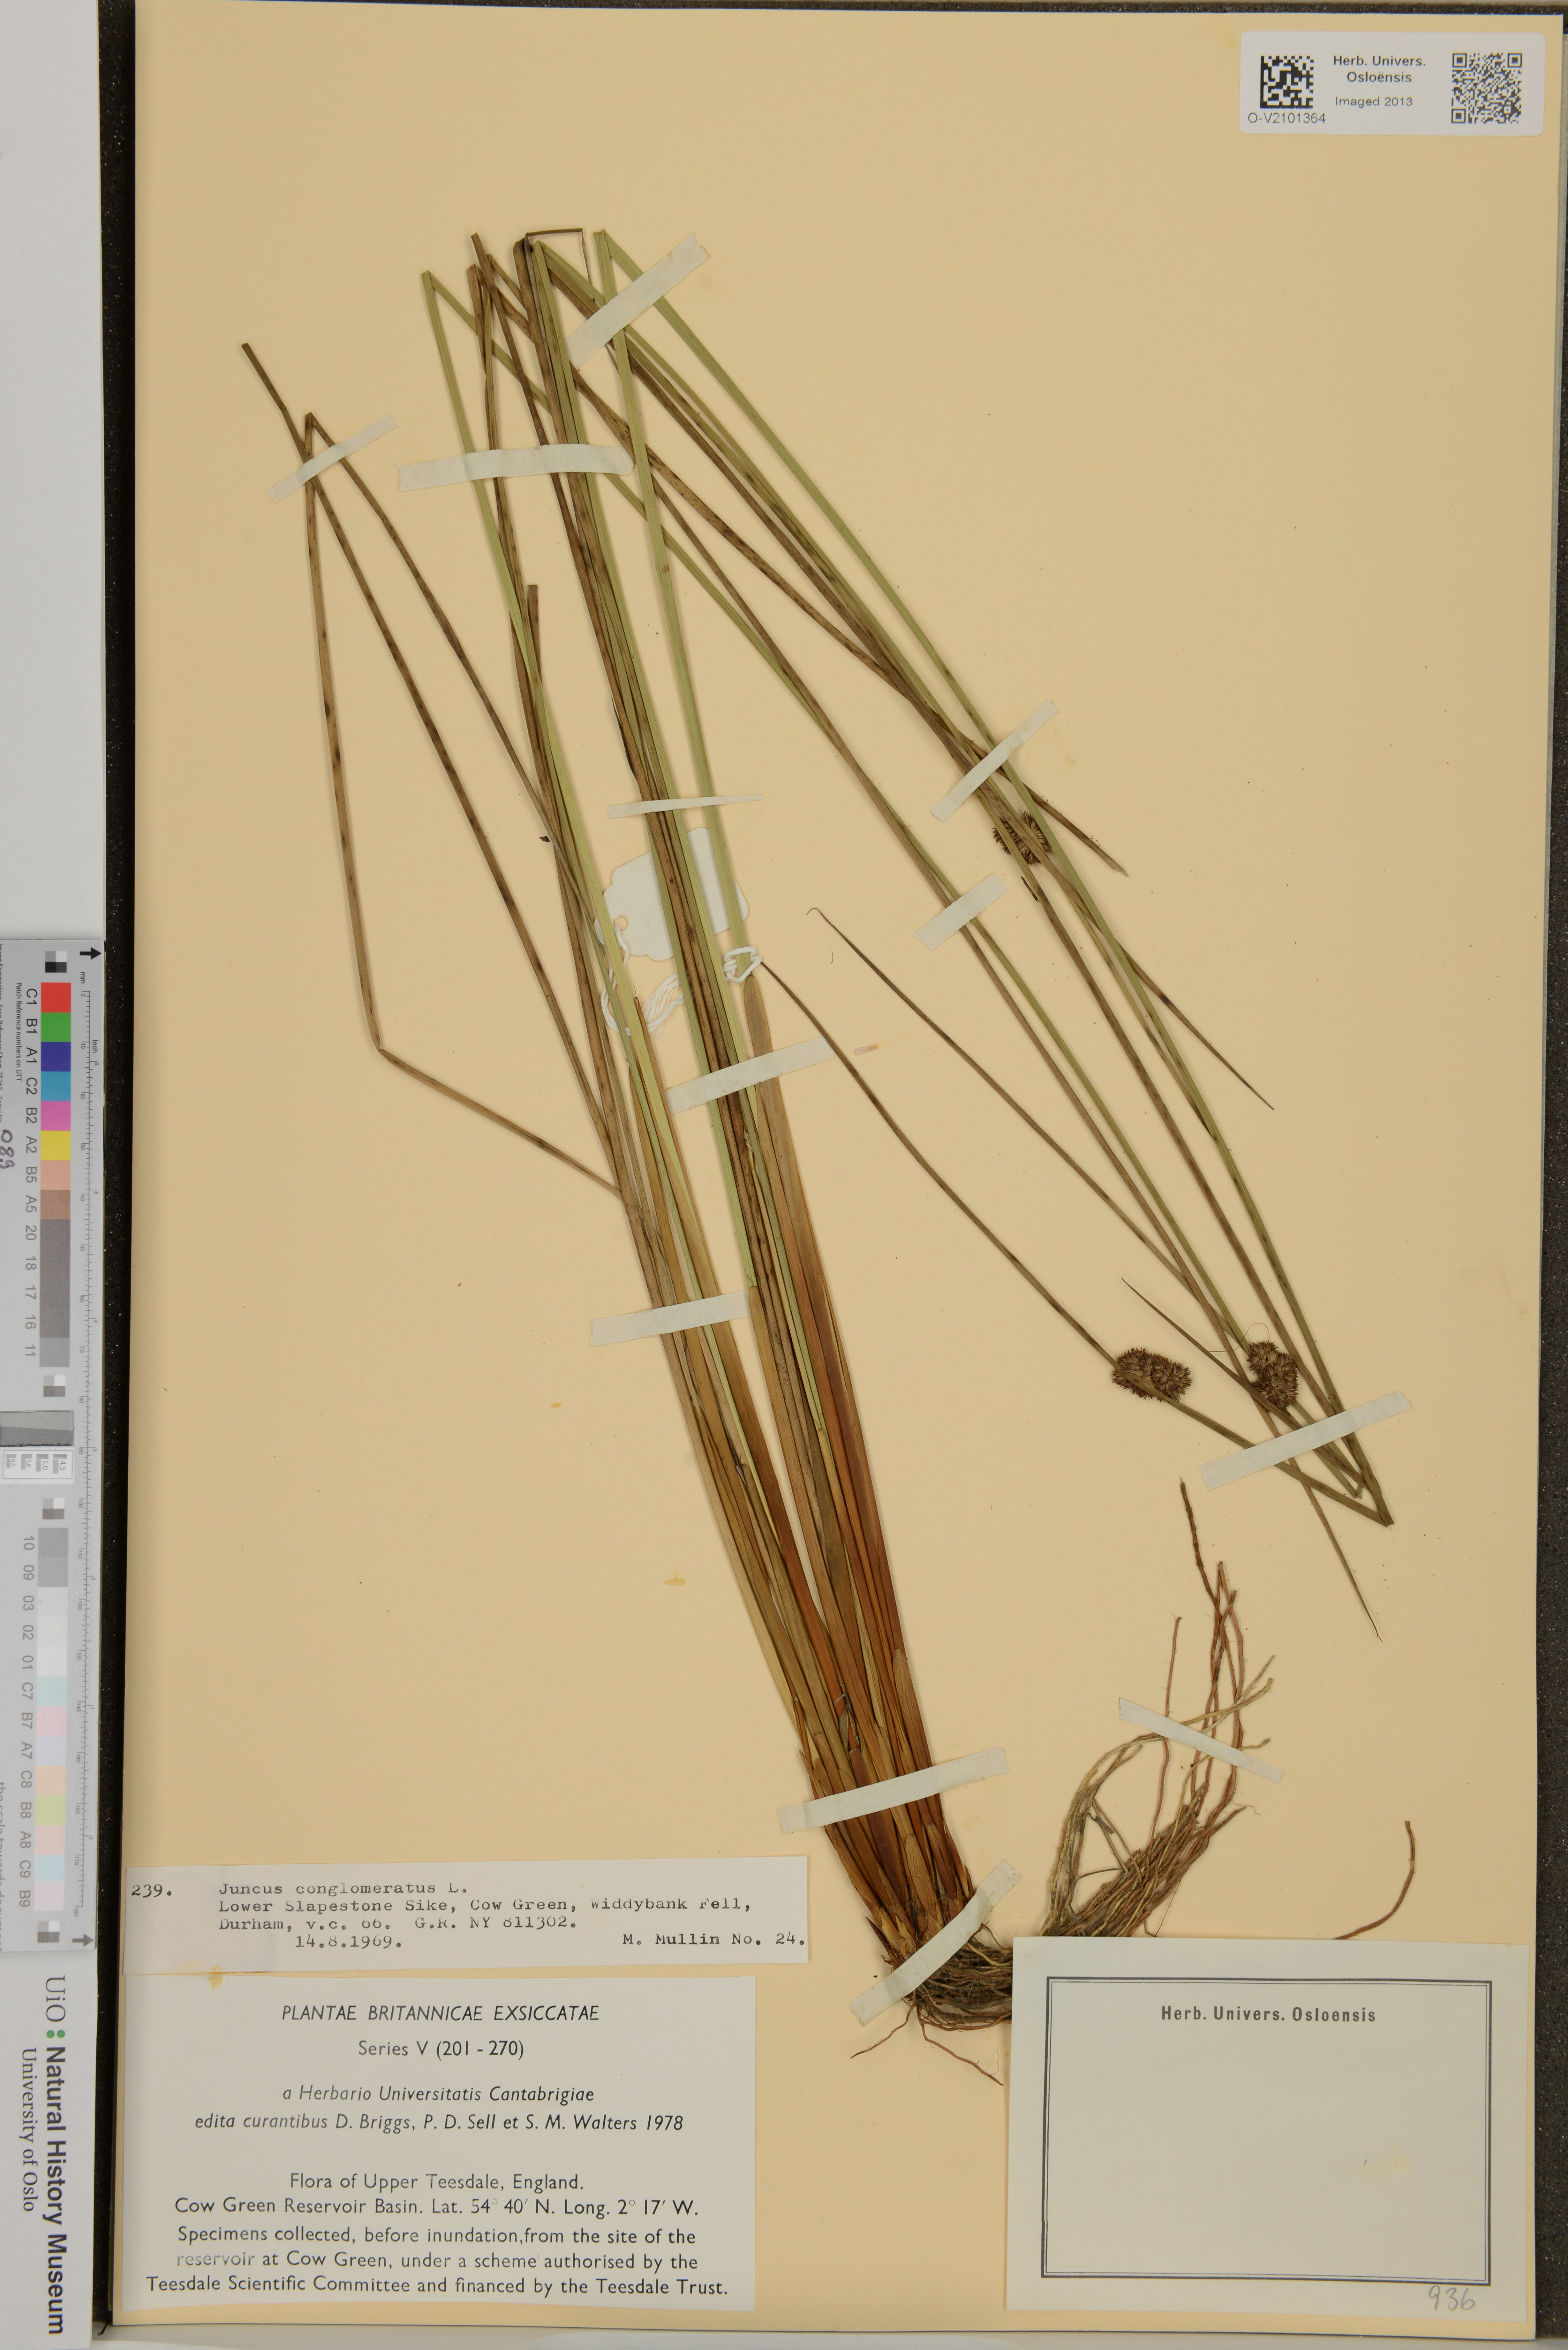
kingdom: Plantae
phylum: Tracheophyta
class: Liliopsida
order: Poales
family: Juncaceae
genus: Juncus
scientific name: Juncus conglomeratus
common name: Compact rush
